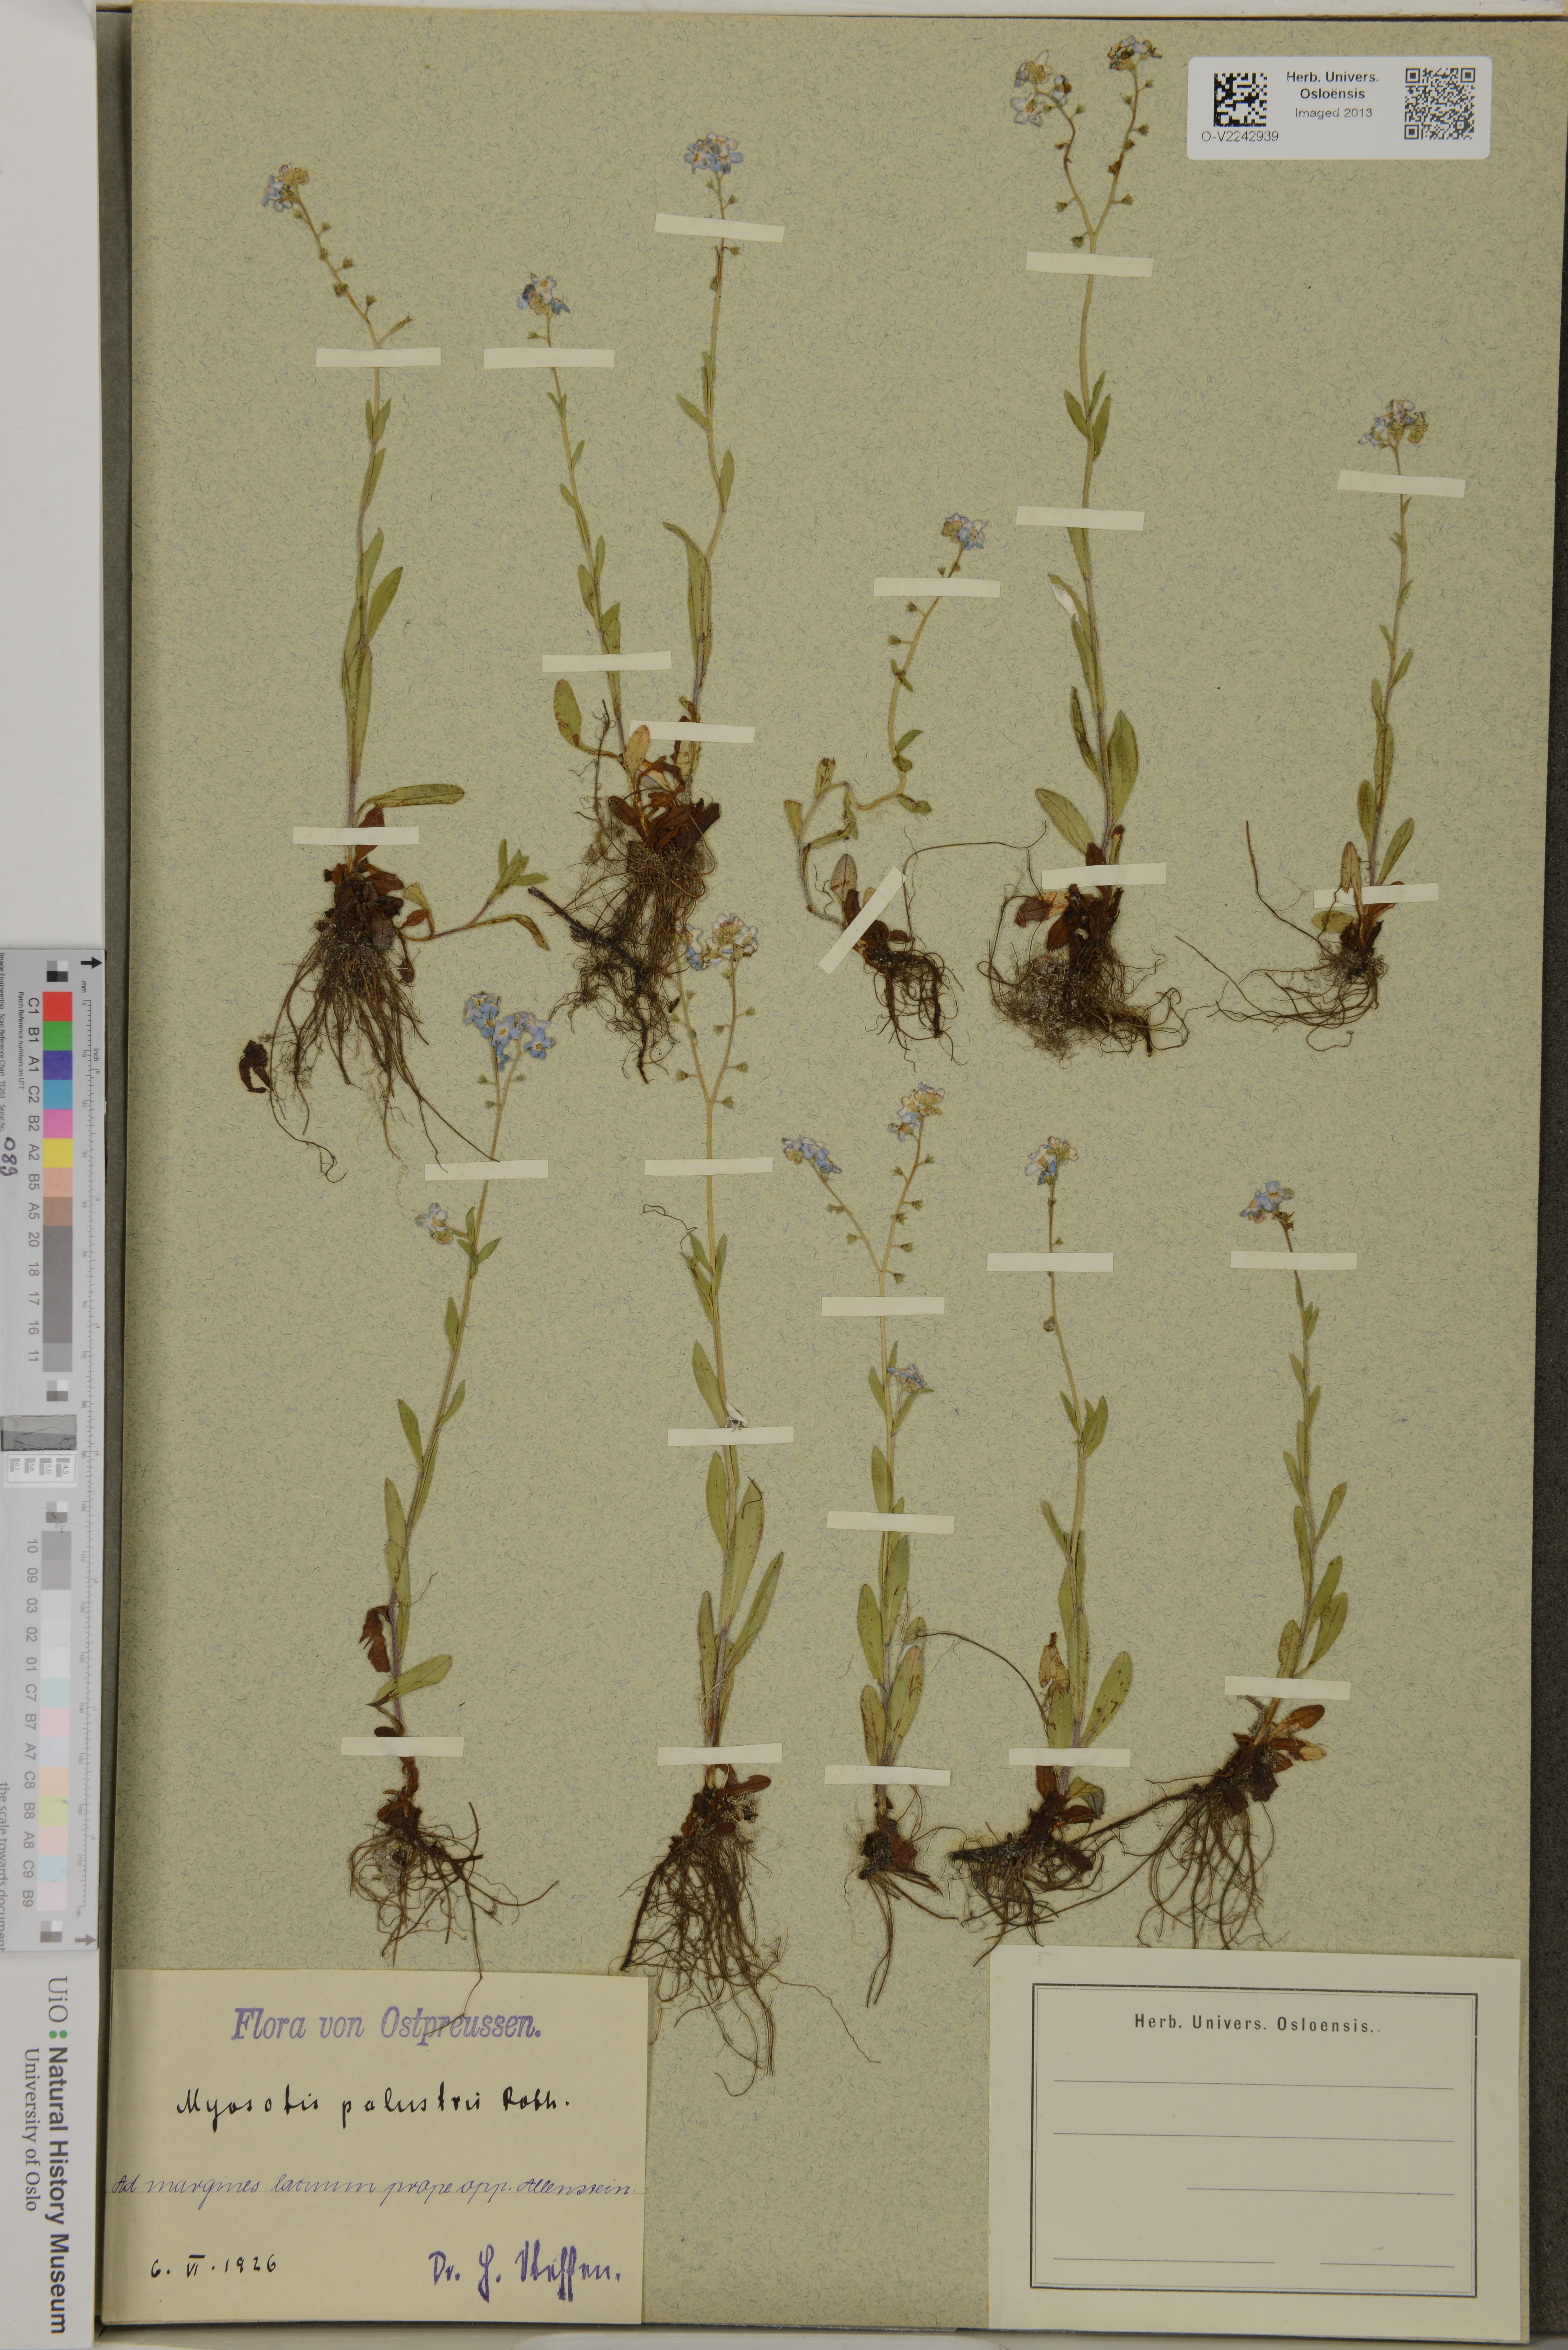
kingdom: Plantae
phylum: Tracheophyta
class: Magnoliopsida
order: Boraginales
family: Boraginaceae
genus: Myosotis
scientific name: Myosotis scorpioides
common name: Water forget-me-not
